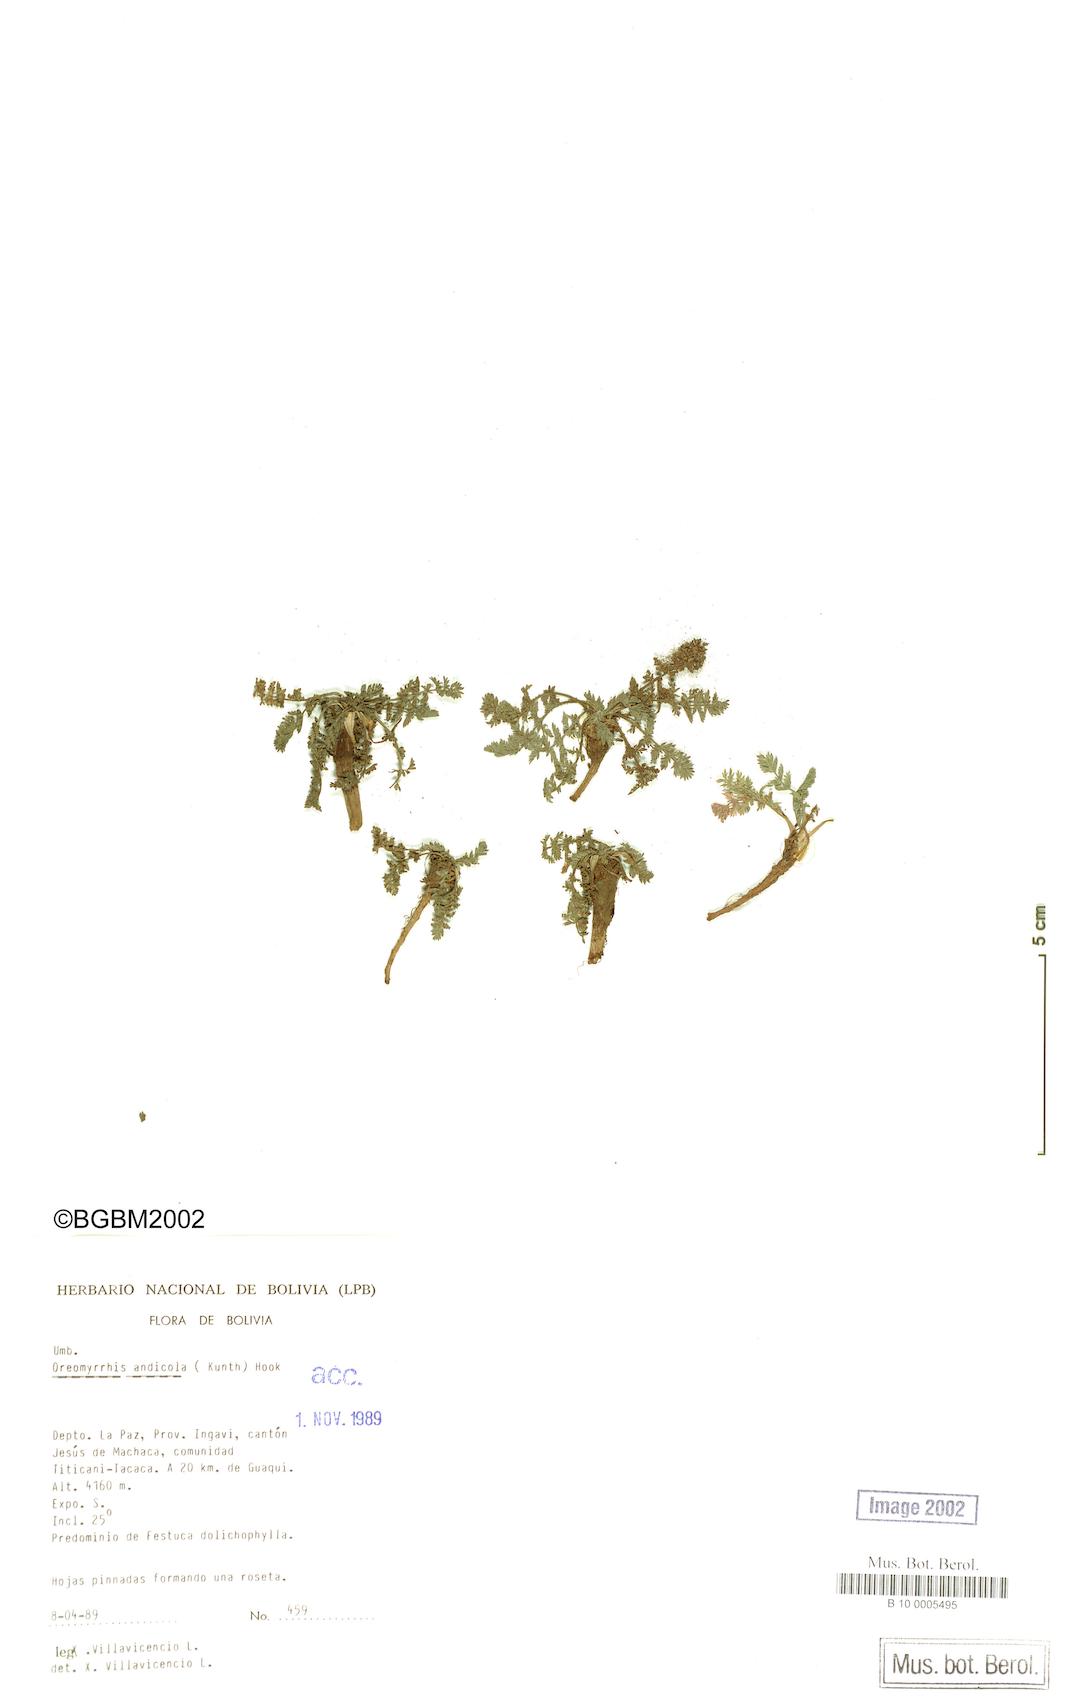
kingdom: Plantae
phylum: Tracheophyta
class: Magnoliopsida
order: Apiales
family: Apiaceae
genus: Chaerophyllum
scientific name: Chaerophyllum andicola
